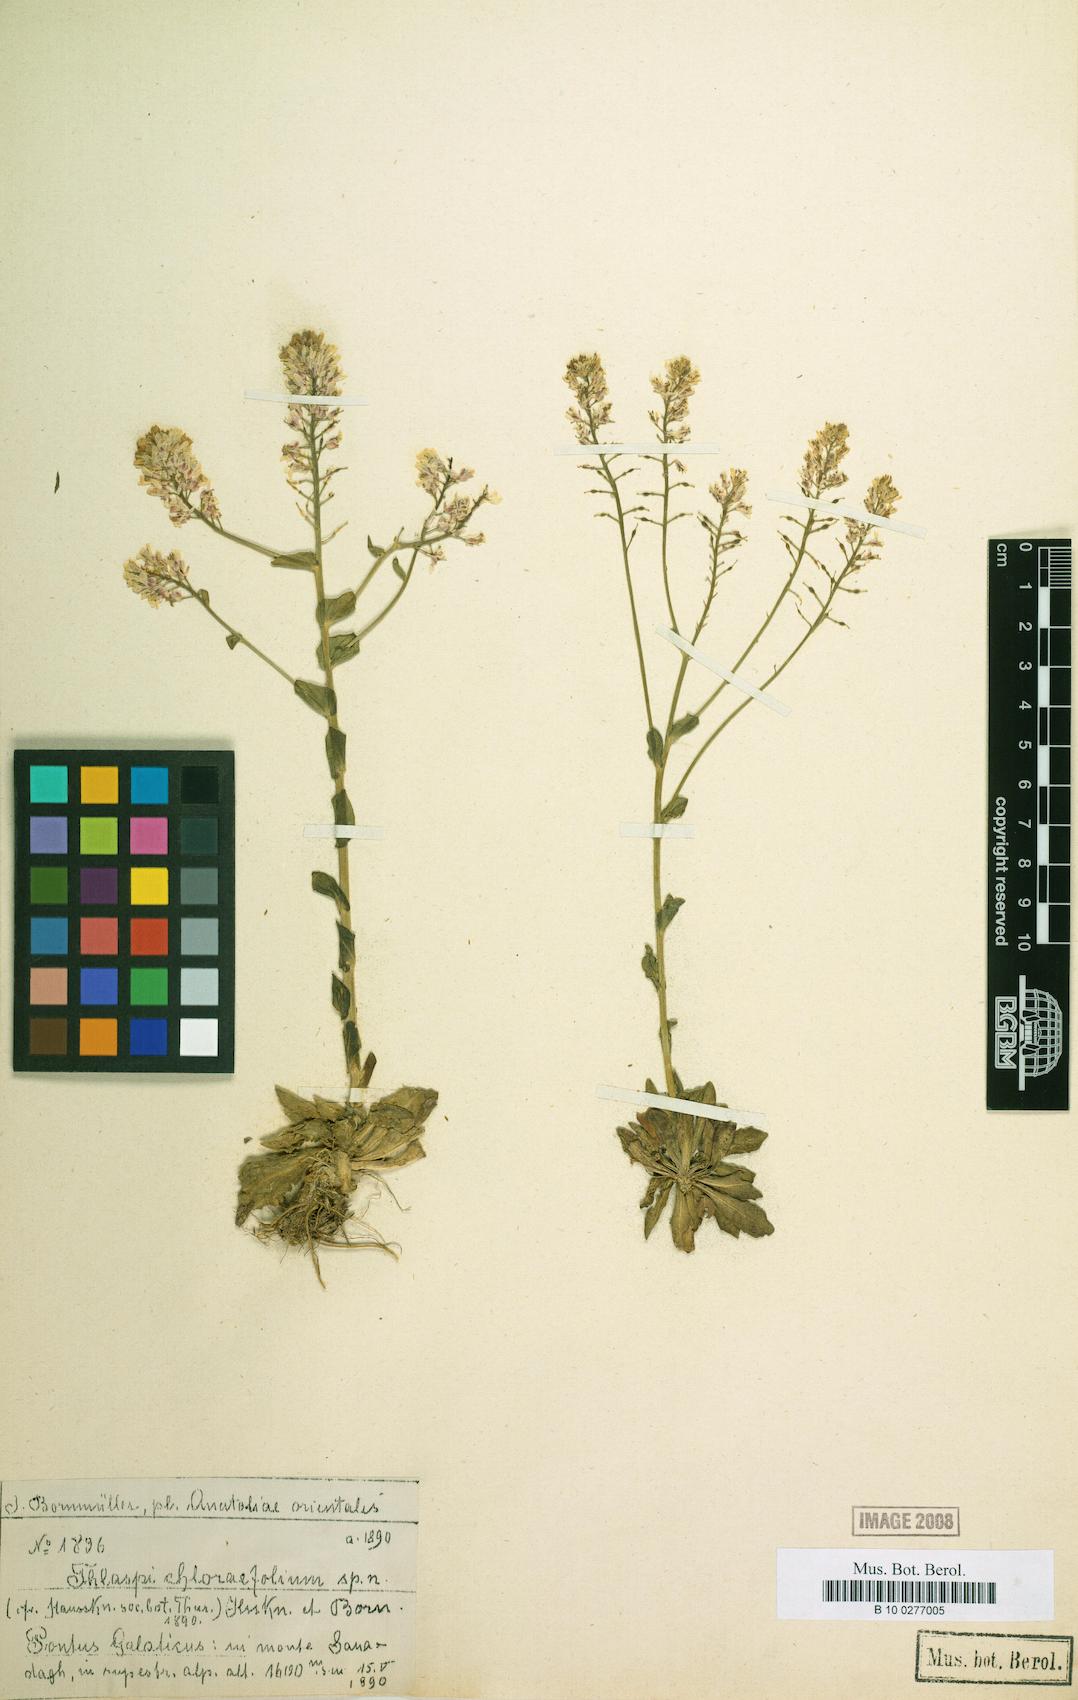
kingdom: Plantae
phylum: Tracheophyta
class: Magnoliopsida
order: Brassicales
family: Brassicaceae
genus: Thlaspi
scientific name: Thlaspi chlorifolium
